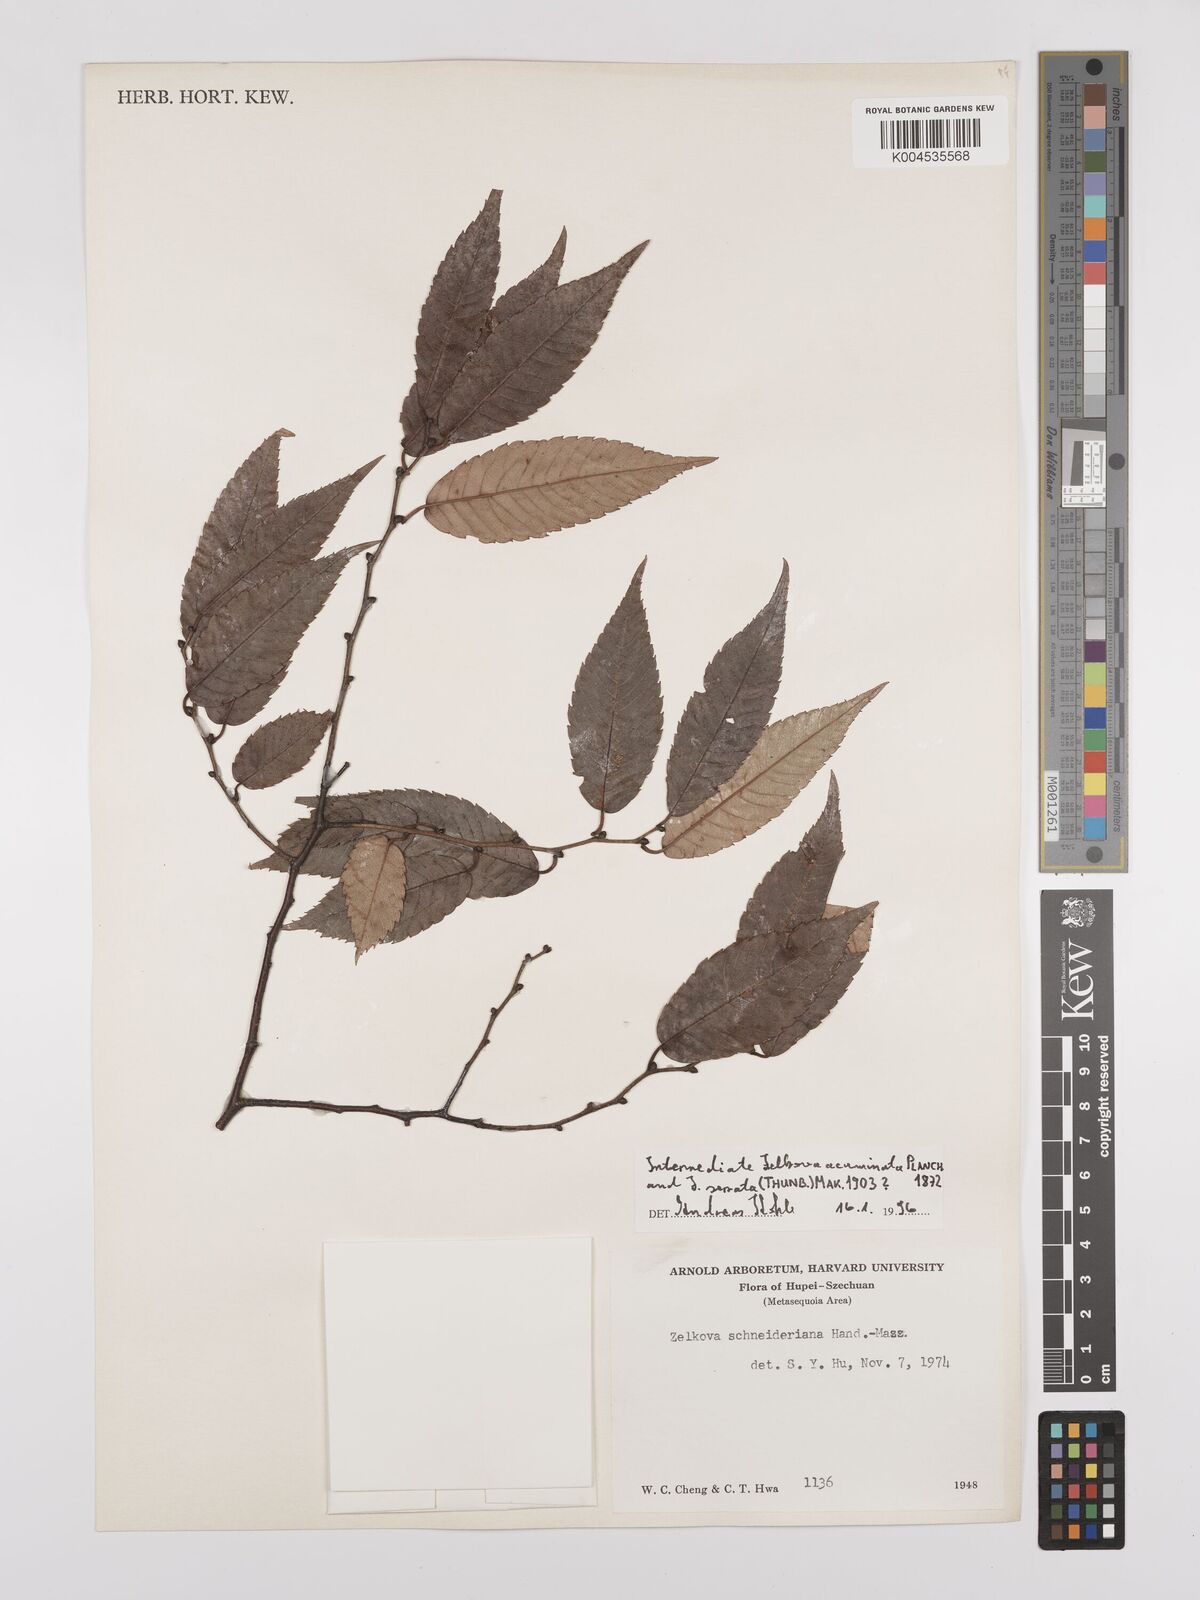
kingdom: Plantae
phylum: Tracheophyta
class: Magnoliopsida
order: Rosales
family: Ulmaceae
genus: Zelkova
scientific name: Zelkova schneideriana
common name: Schneider’s zelkova
